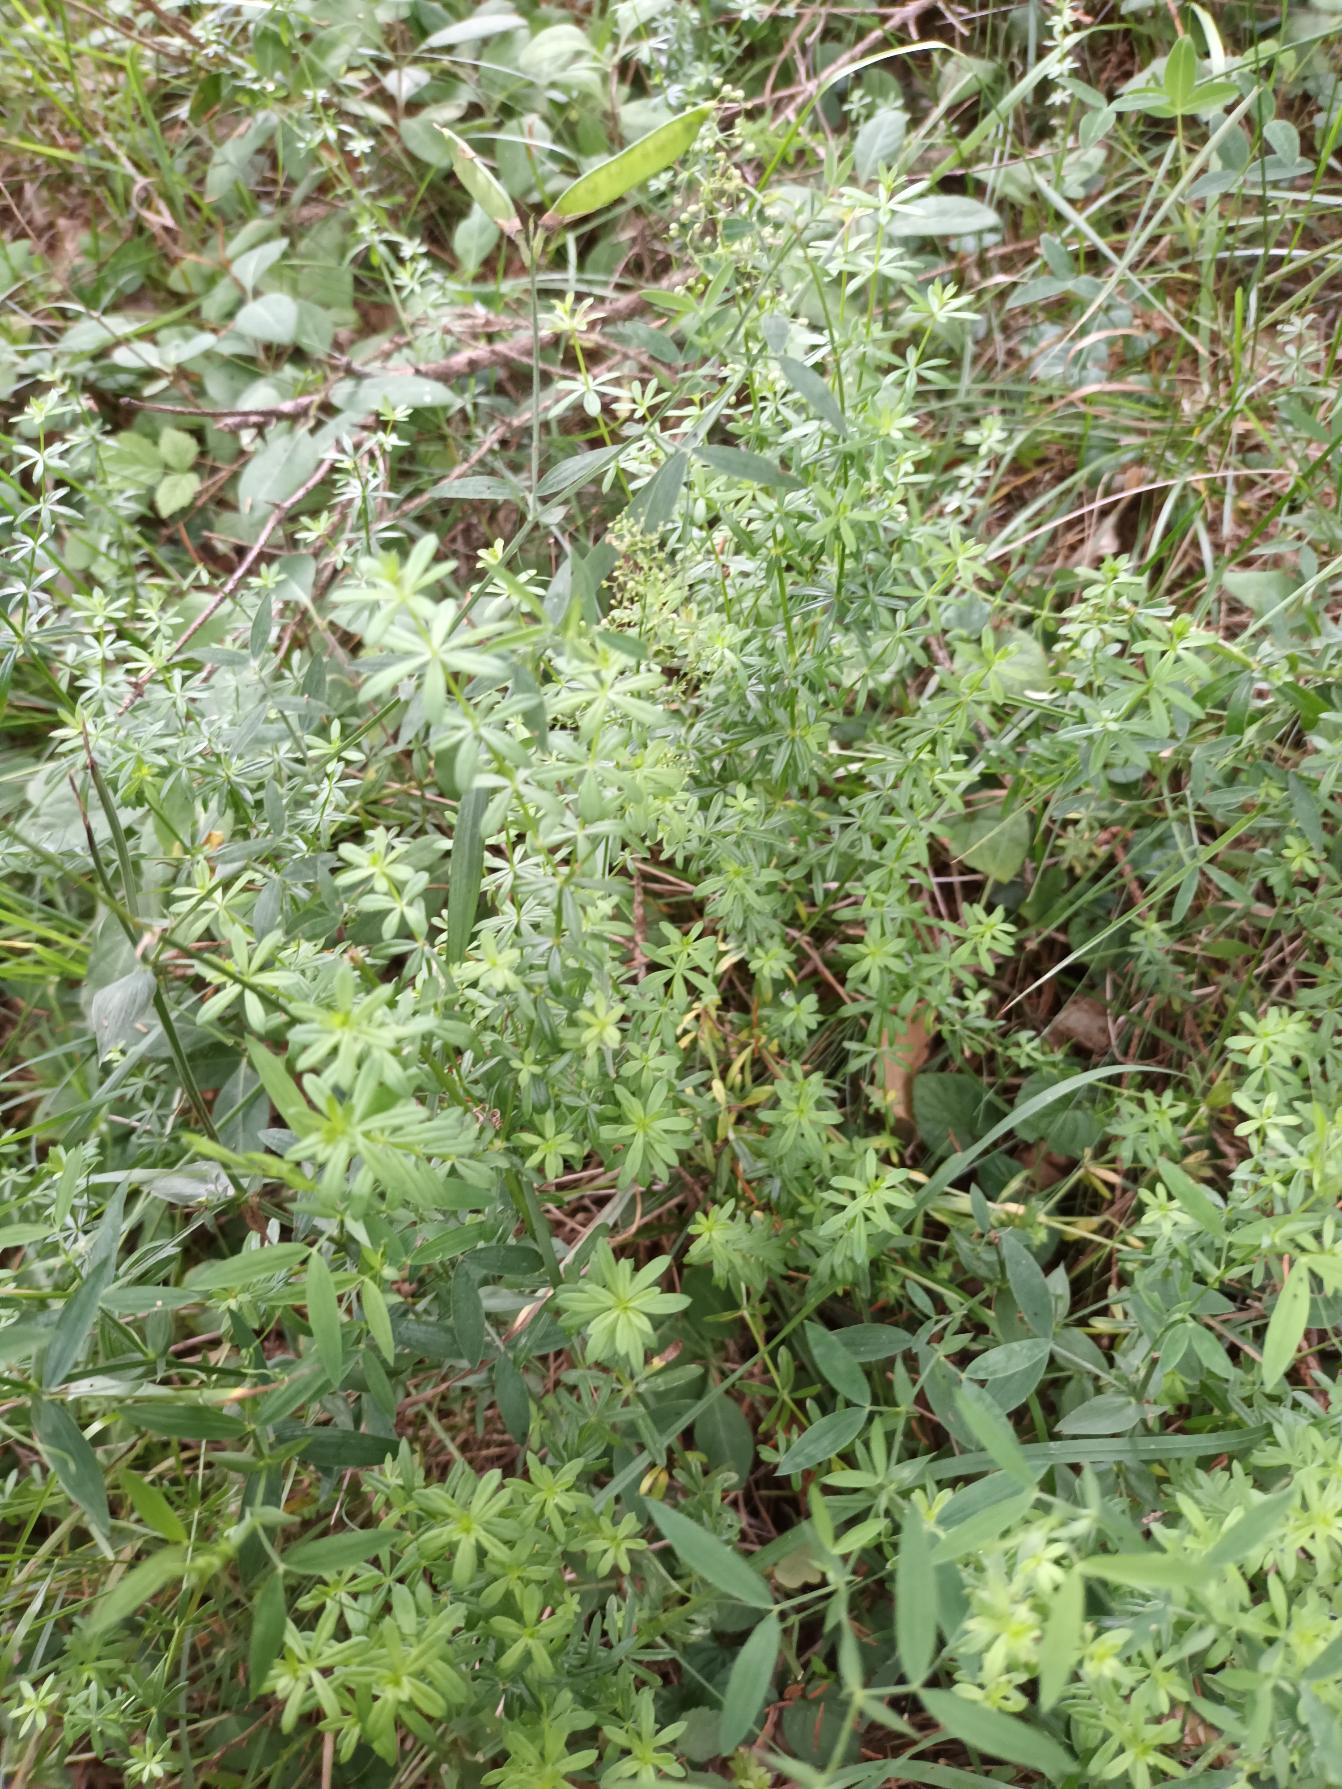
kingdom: Plantae
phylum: Tracheophyta
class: Magnoliopsida
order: Gentianales
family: Rubiaceae
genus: Galium
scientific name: Galium mollugo
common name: Hvid snerre
